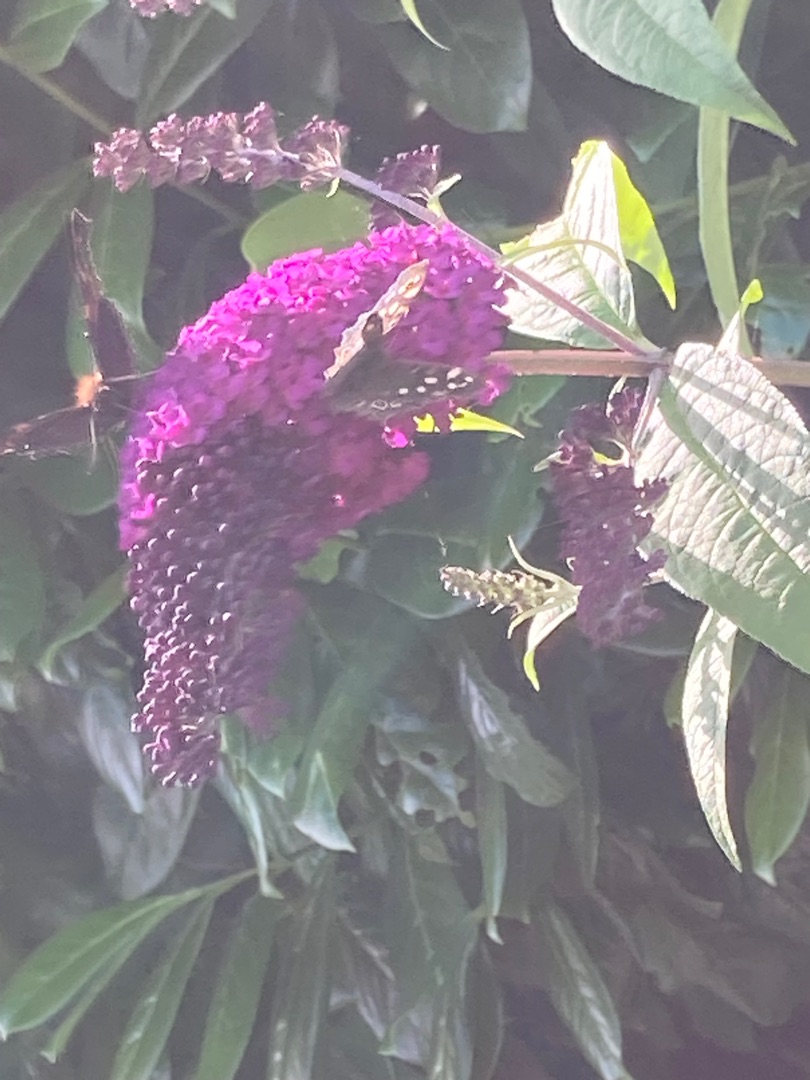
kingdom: Animalia
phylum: Arthropoda
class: Insecta
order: Lepidoptera
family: Nymphalidae
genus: Pararge
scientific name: Pararge aegeria
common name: Skovrandøje
